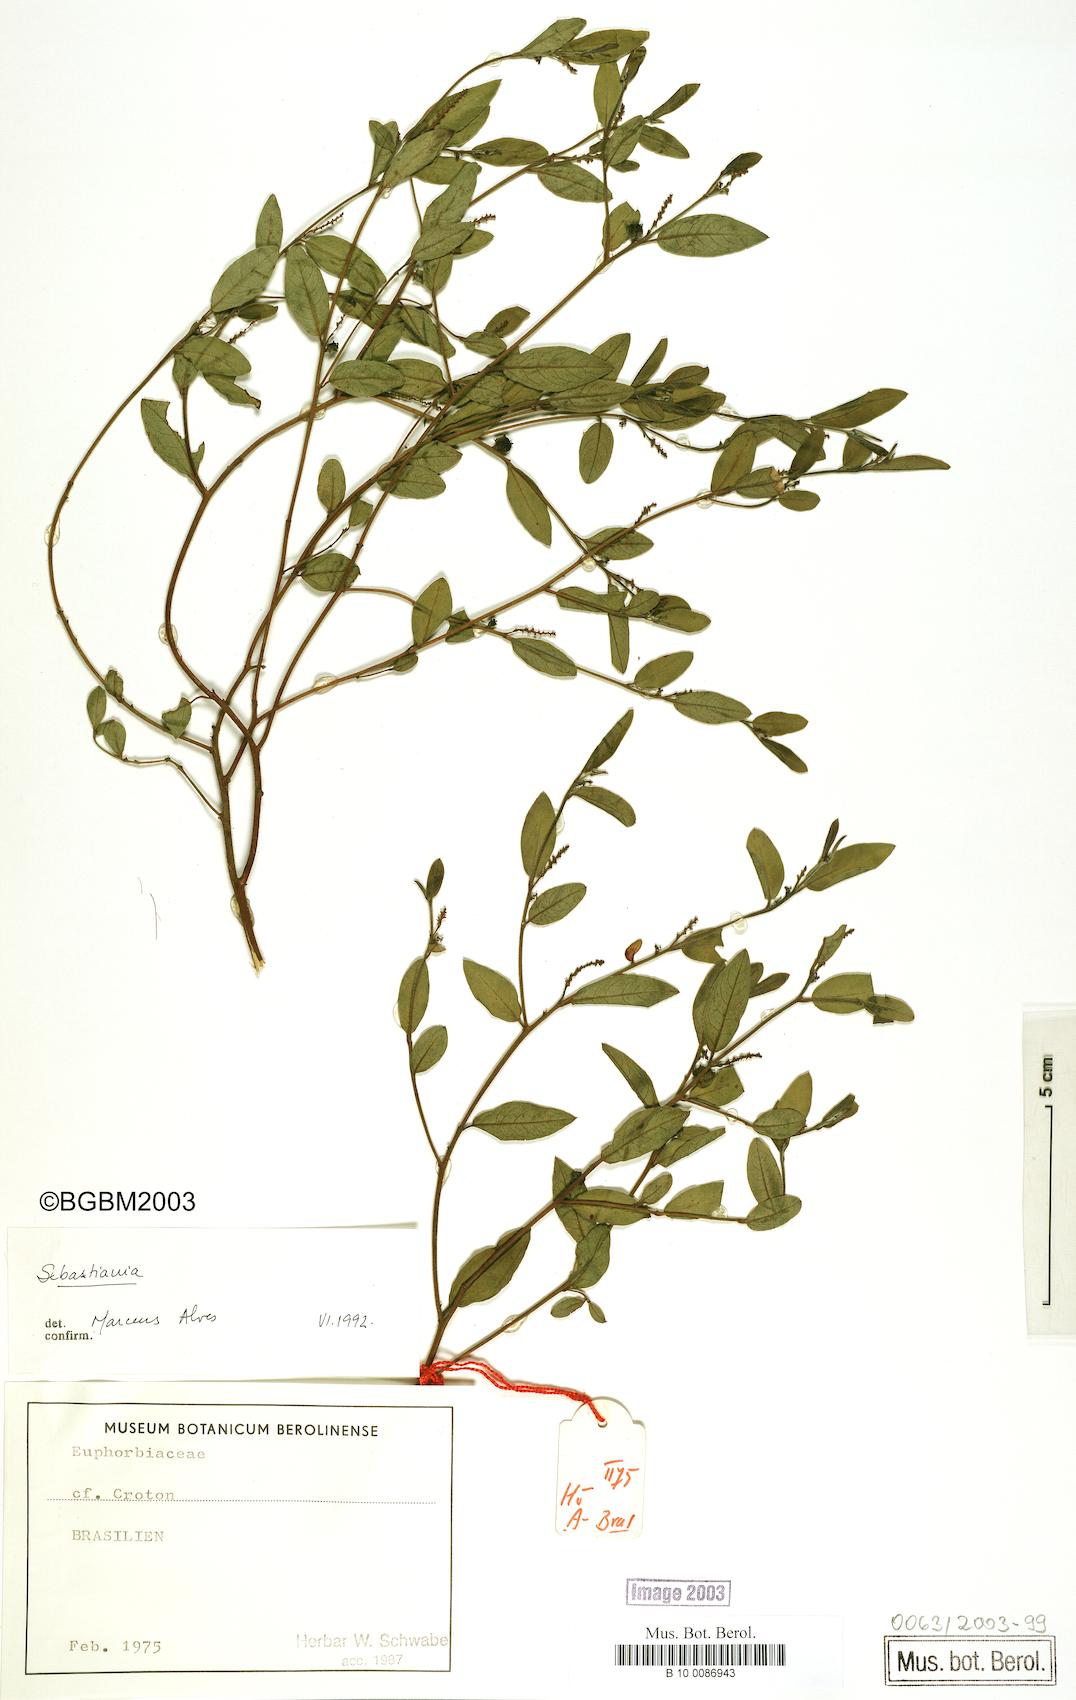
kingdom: Plantae
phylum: Tracheophyta
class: Magnoliopsida
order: Malpighiales
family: Euphorbiaceae
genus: Microstachys
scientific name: Microstachys hispida
